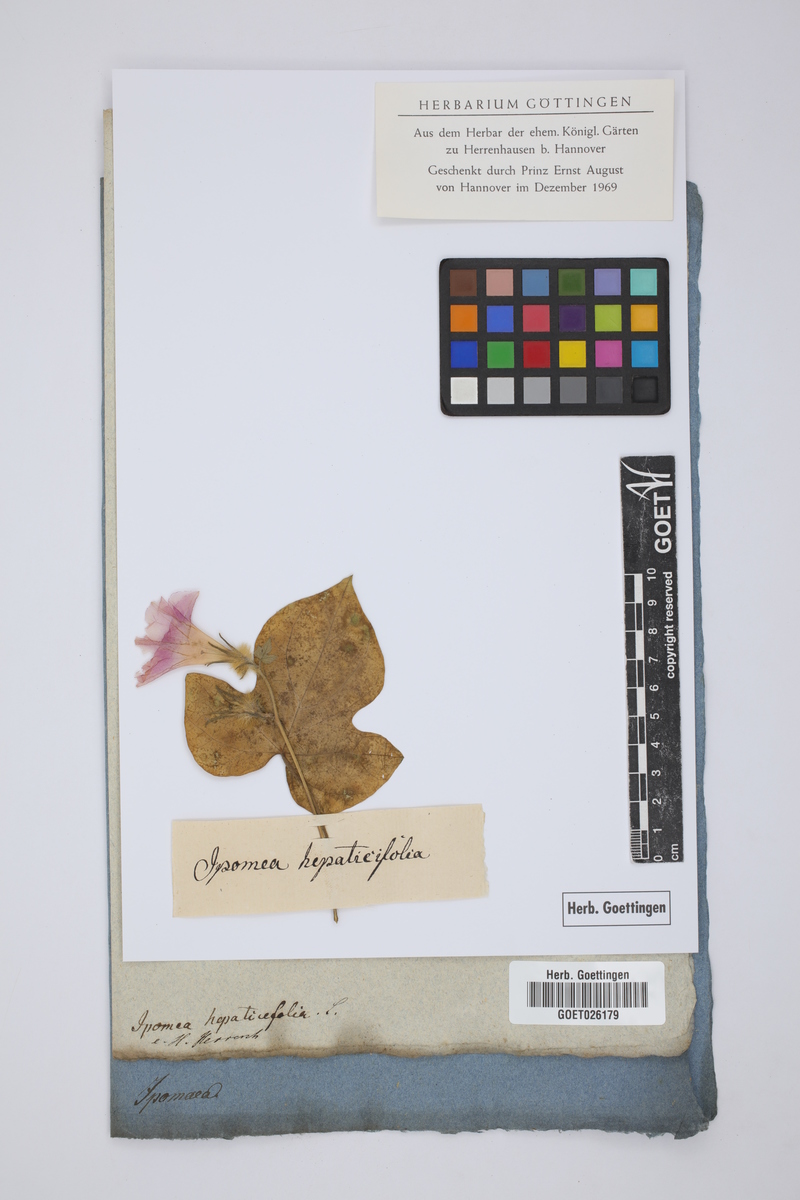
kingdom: Plantae
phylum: Tracheophyta
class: Magnoliopsida
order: Solanales
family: Convolvulaceae
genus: Ipomoea
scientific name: Ipomoea pes-tigridis
